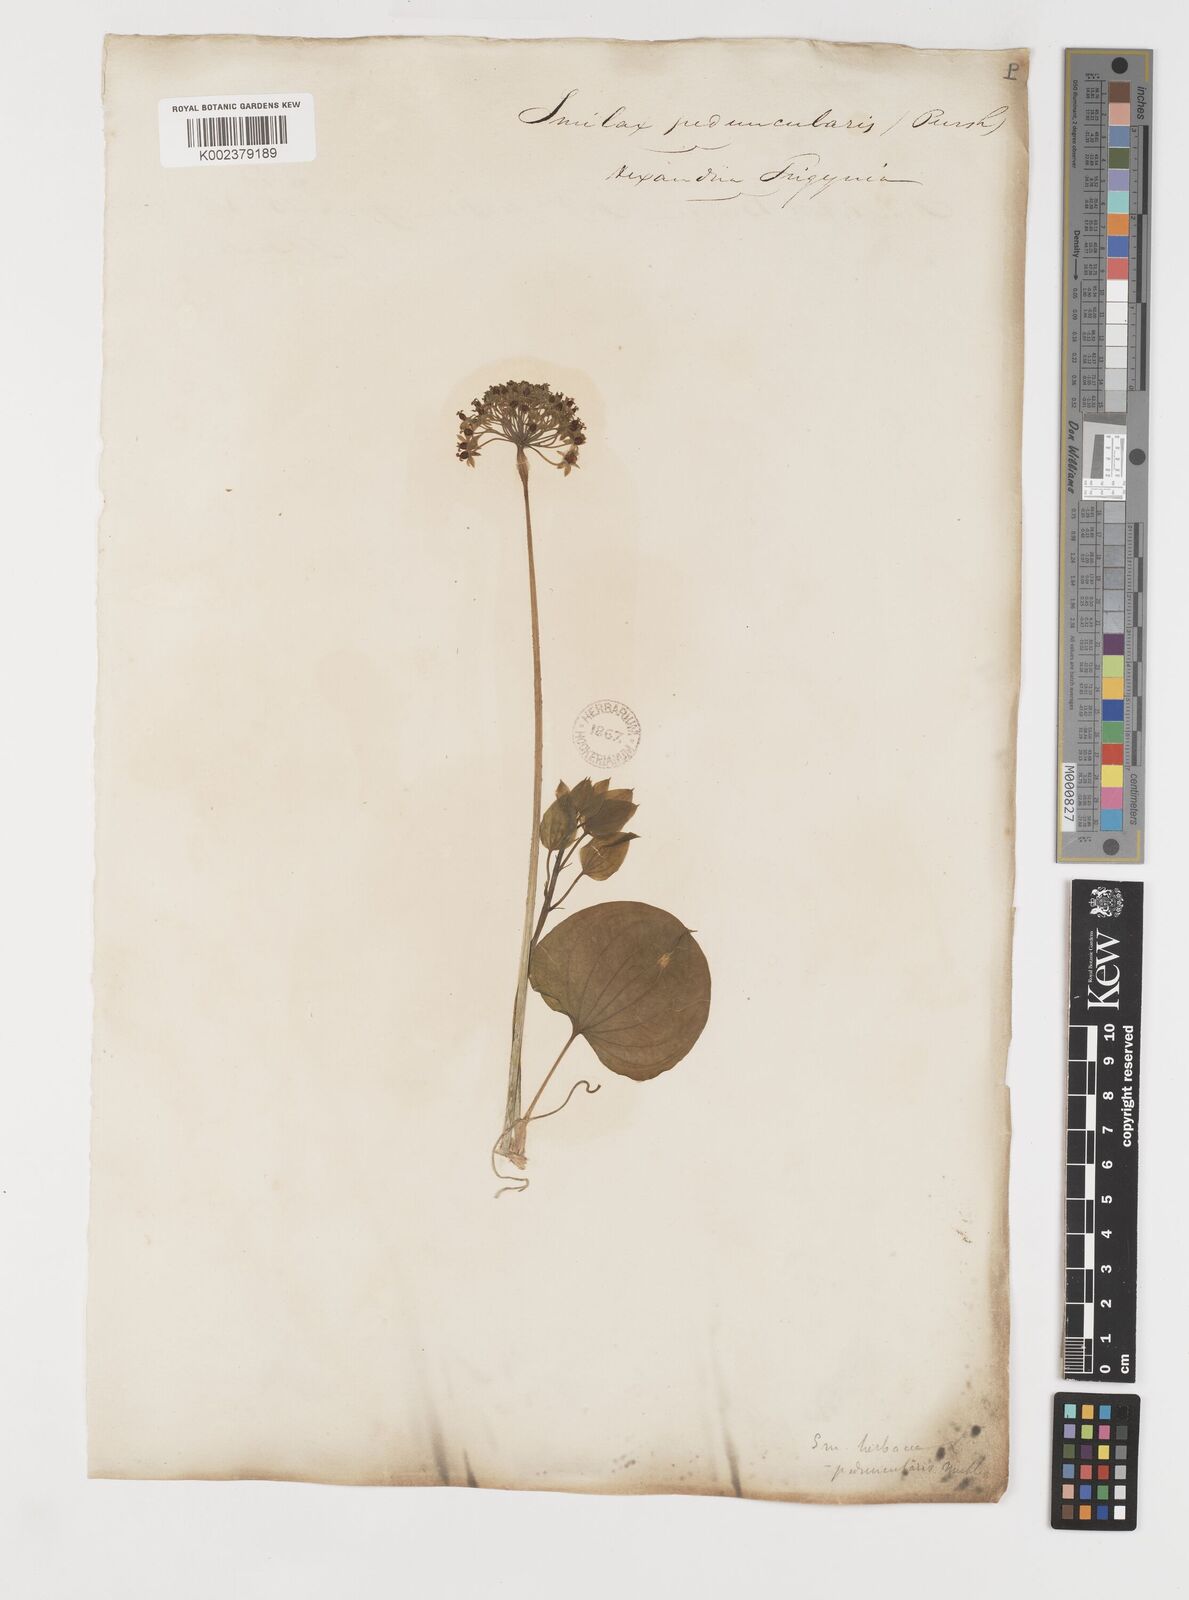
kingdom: Plantae
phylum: Tracheophyta
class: Liliopsida
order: Liliales
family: Smilacaceae
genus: Smilax
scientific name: Smilax
